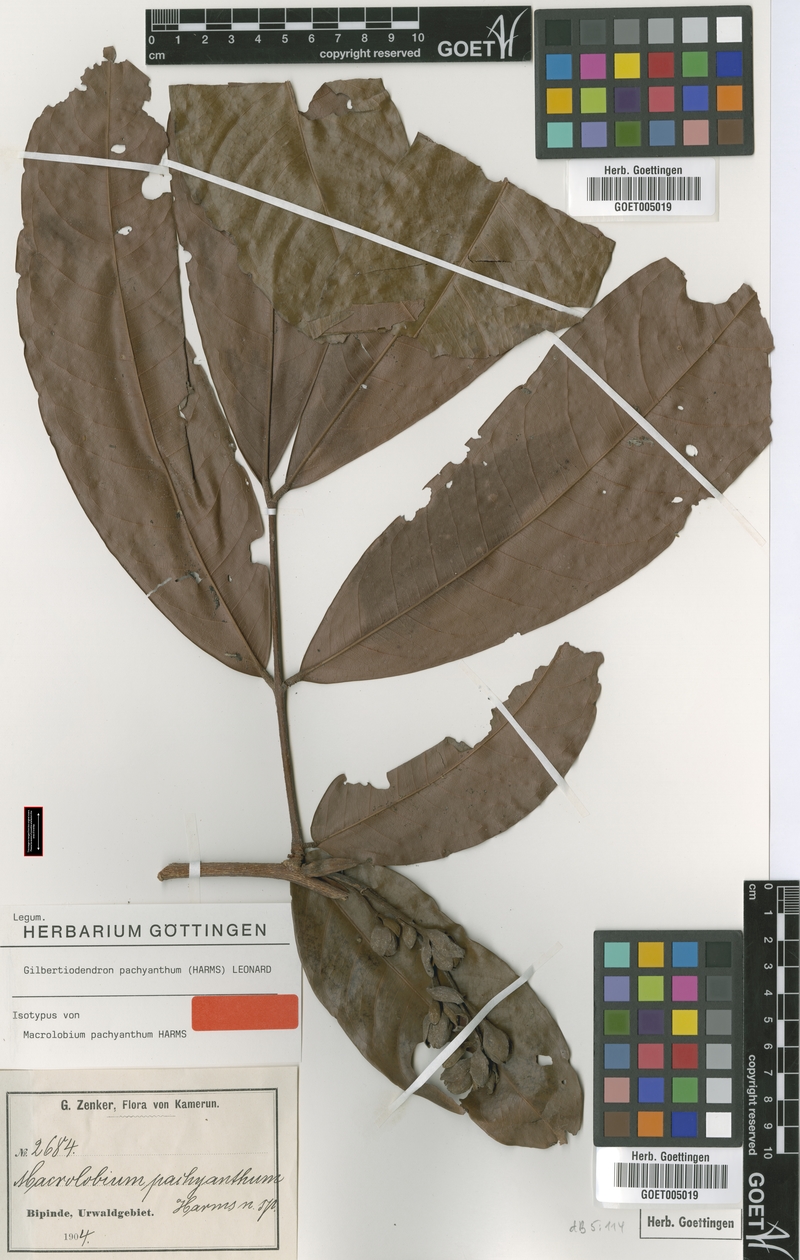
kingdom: Plantae
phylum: Tracheophyta
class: Magnoliopsida
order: Fabales
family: Fabaceae
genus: Gilbertiodendron
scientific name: Gilbertiodendron pachyanthum
